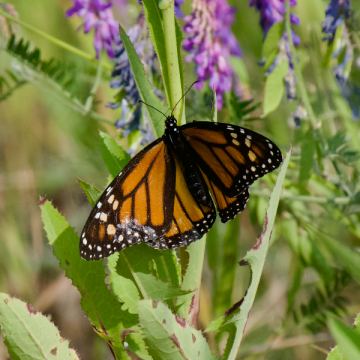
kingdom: Animalia
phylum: Arthropoda
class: Insecta
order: Lepidoptera
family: Nymphalidae
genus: Danaus
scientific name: Danaus plexippus
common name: Monarch
